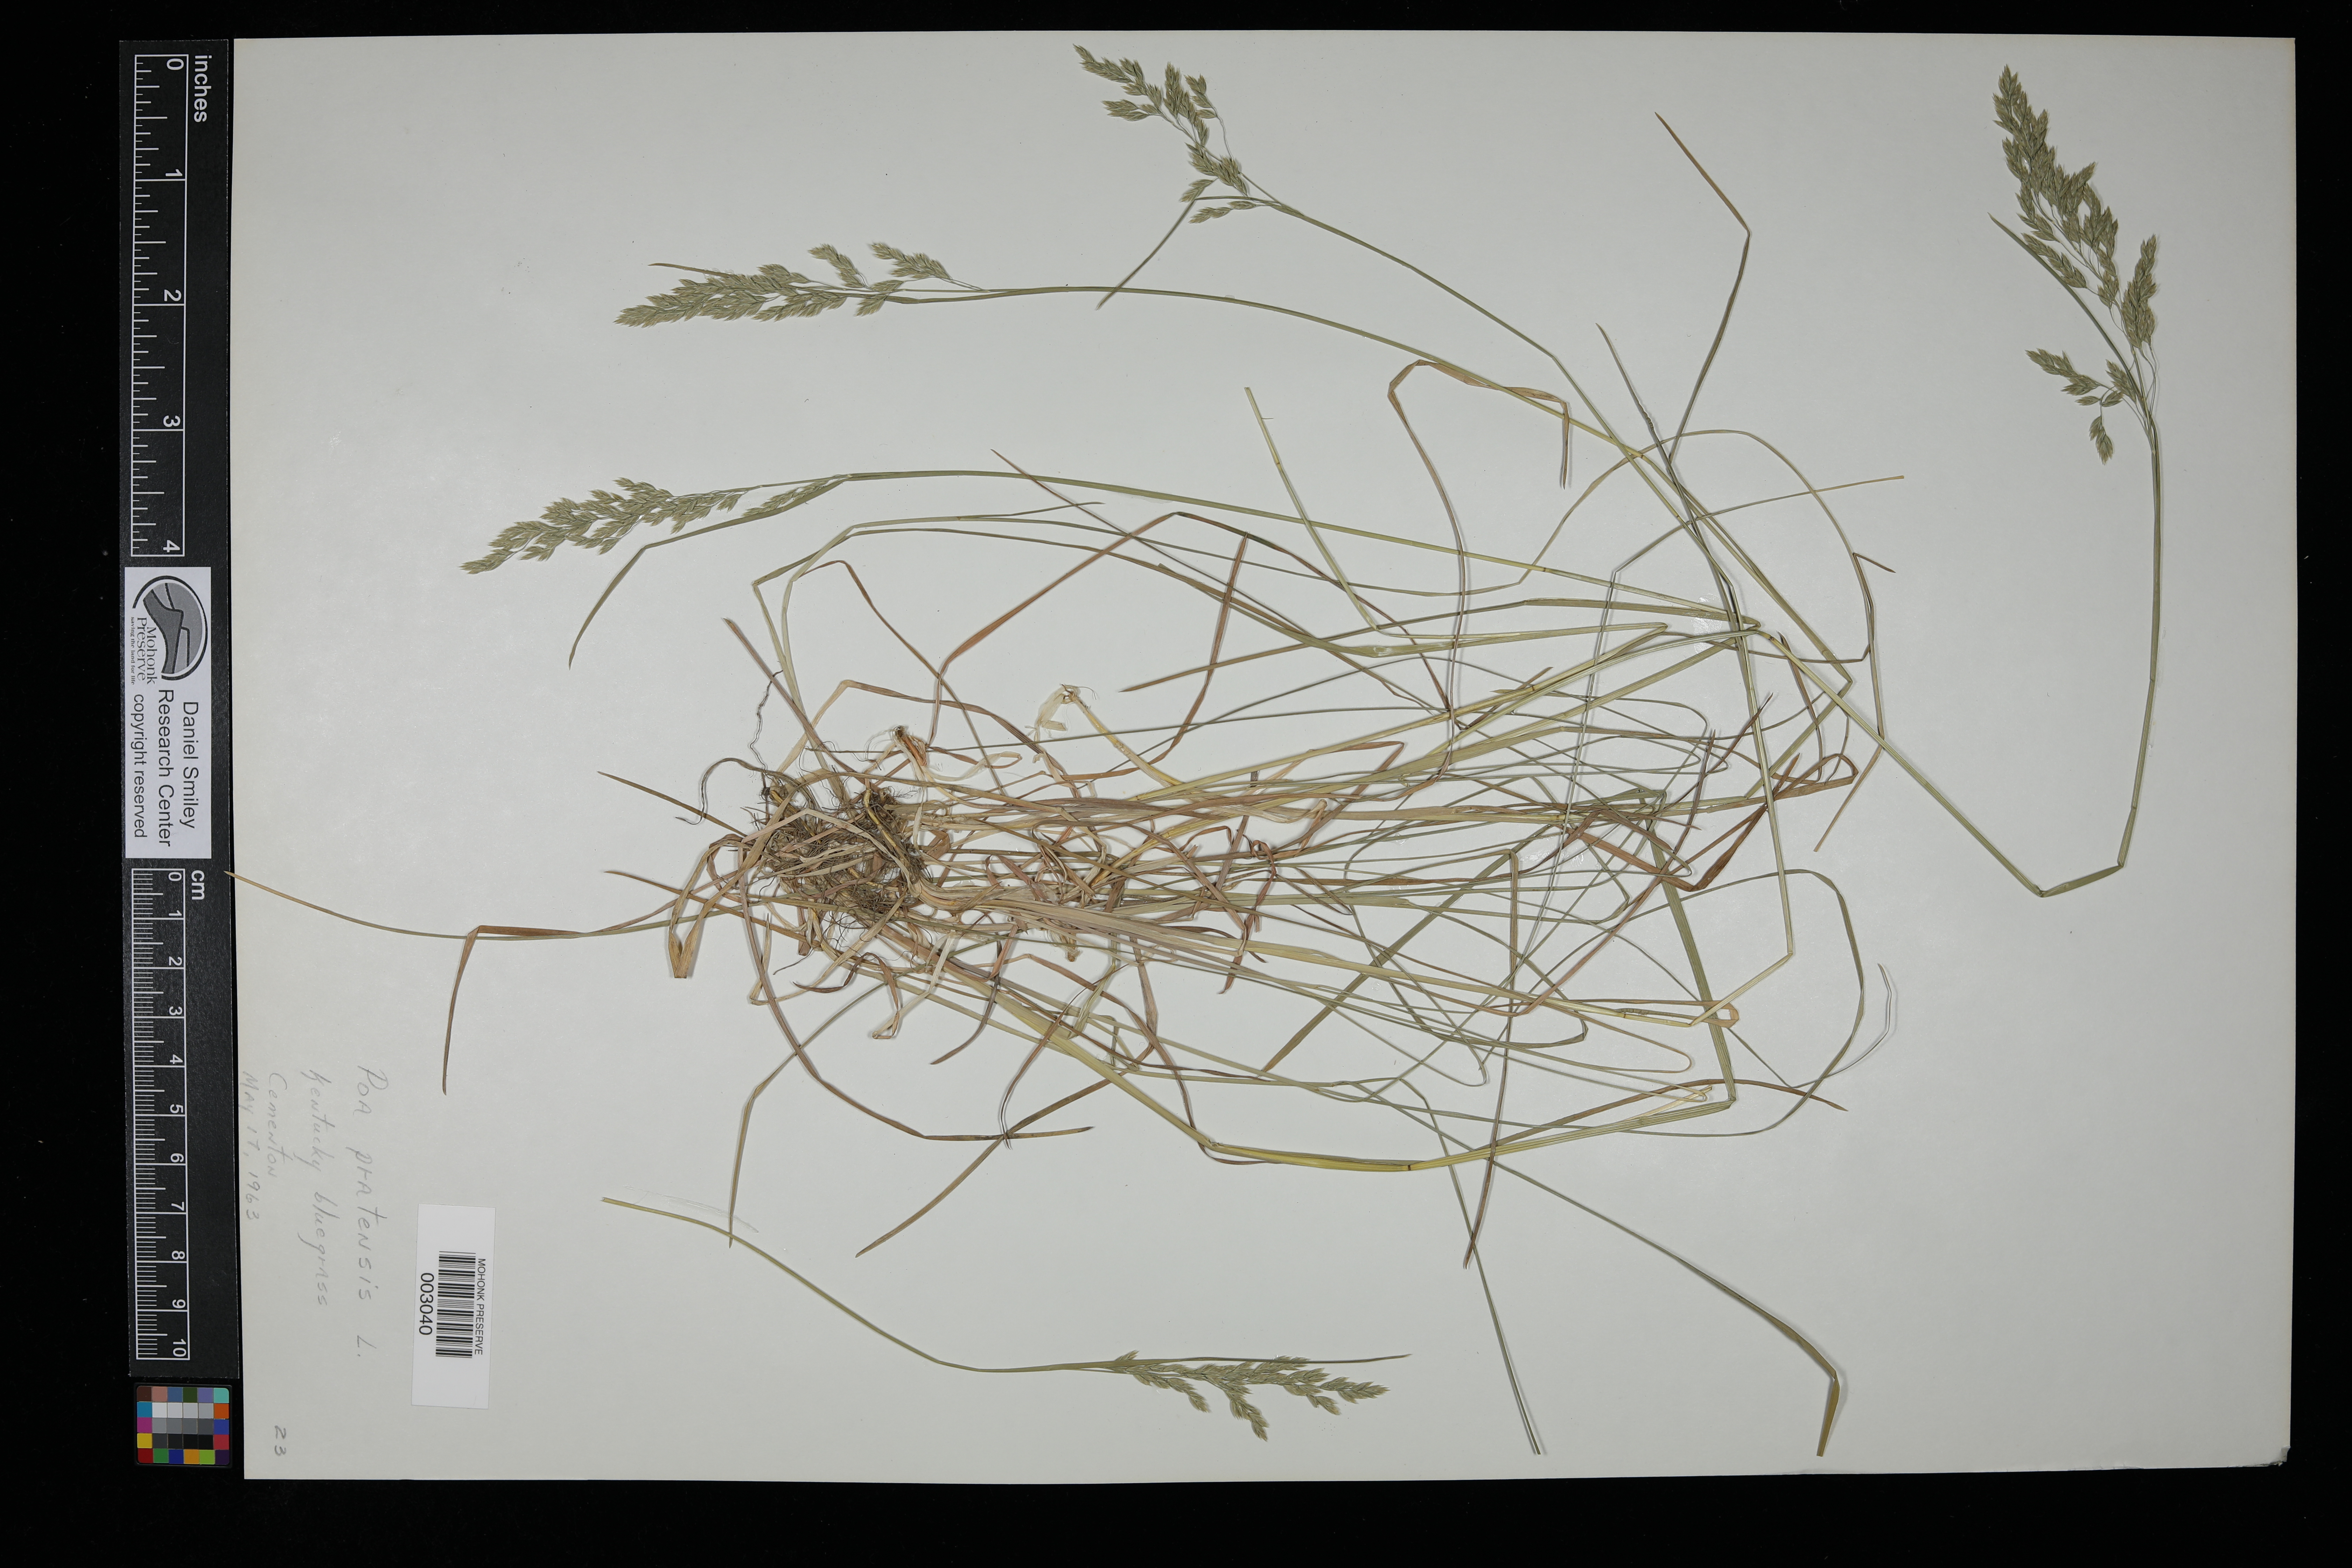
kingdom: Plantae
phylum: Tracheophyta
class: Liliopsida
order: Poales
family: Poaceae
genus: Poa
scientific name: Poa pratensis
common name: Kentucky bluegrass
